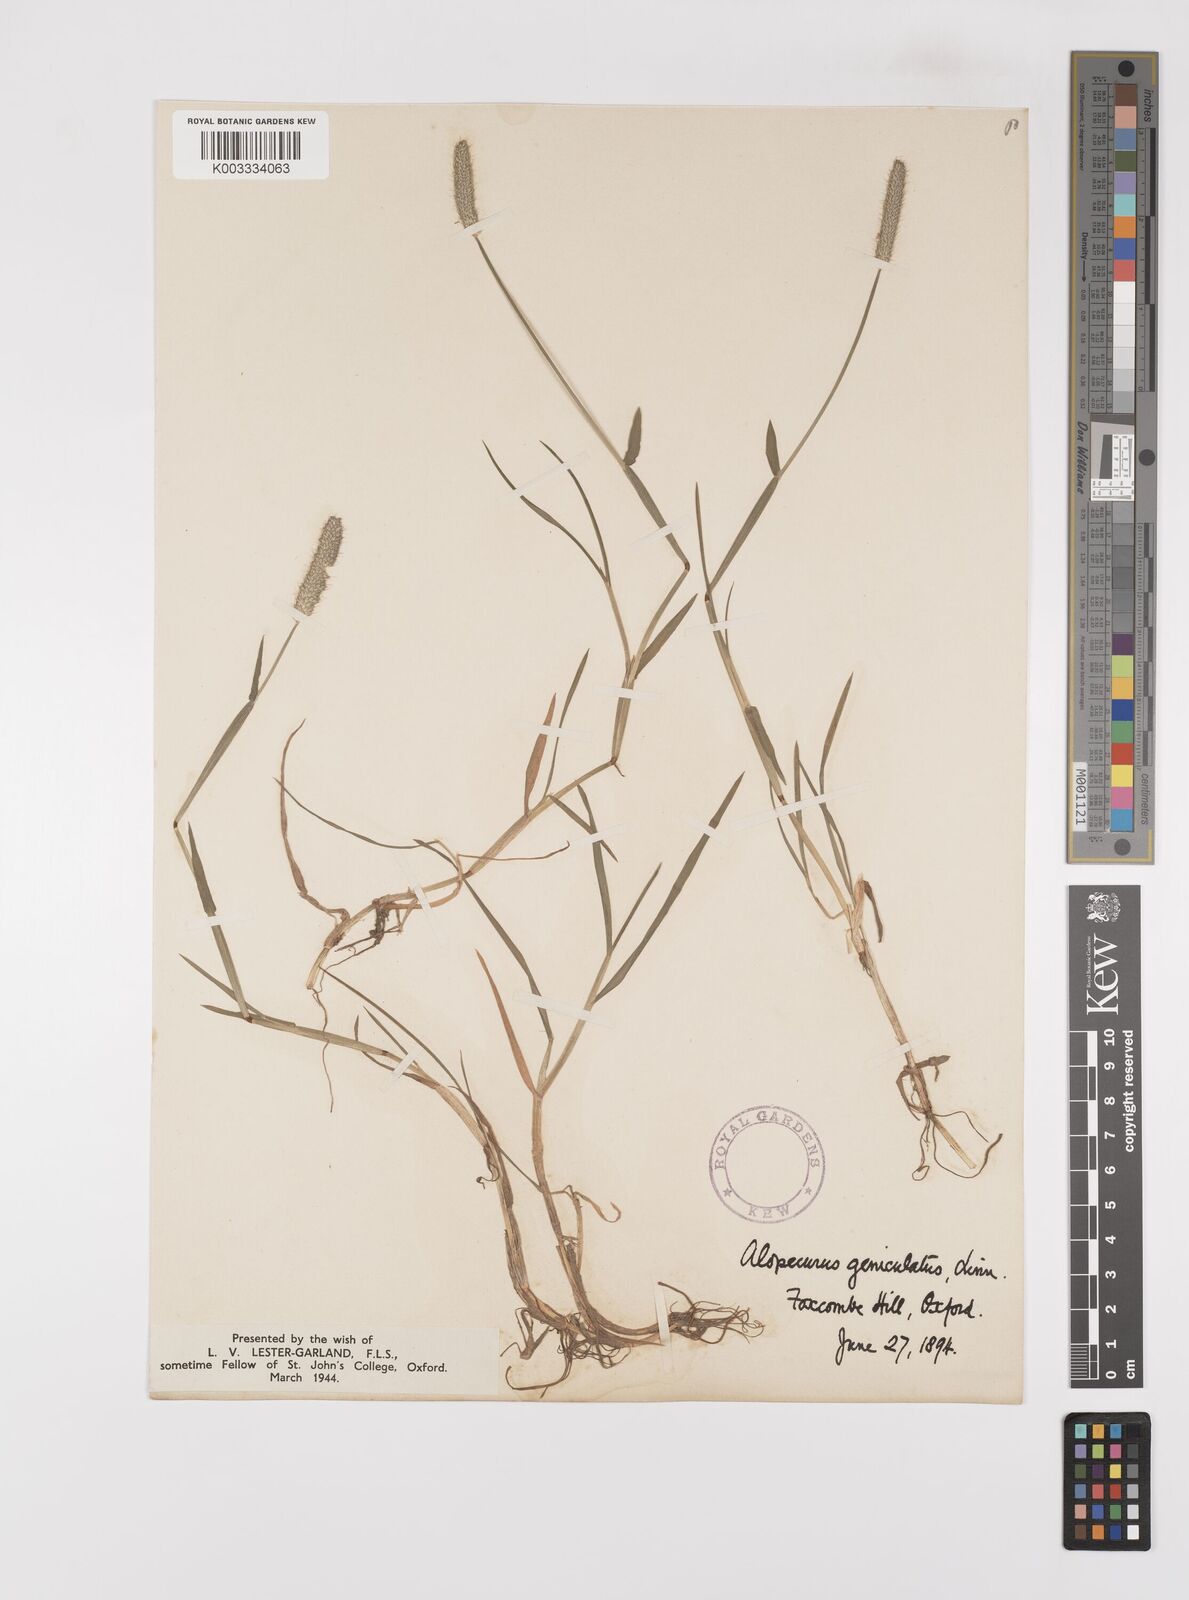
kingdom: Plantae
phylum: Tracheophyta
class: Liliopsida
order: Poales
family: Poaceae
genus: Alopecurus
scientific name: Alopecurus geniculatus
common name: Water foxtail
